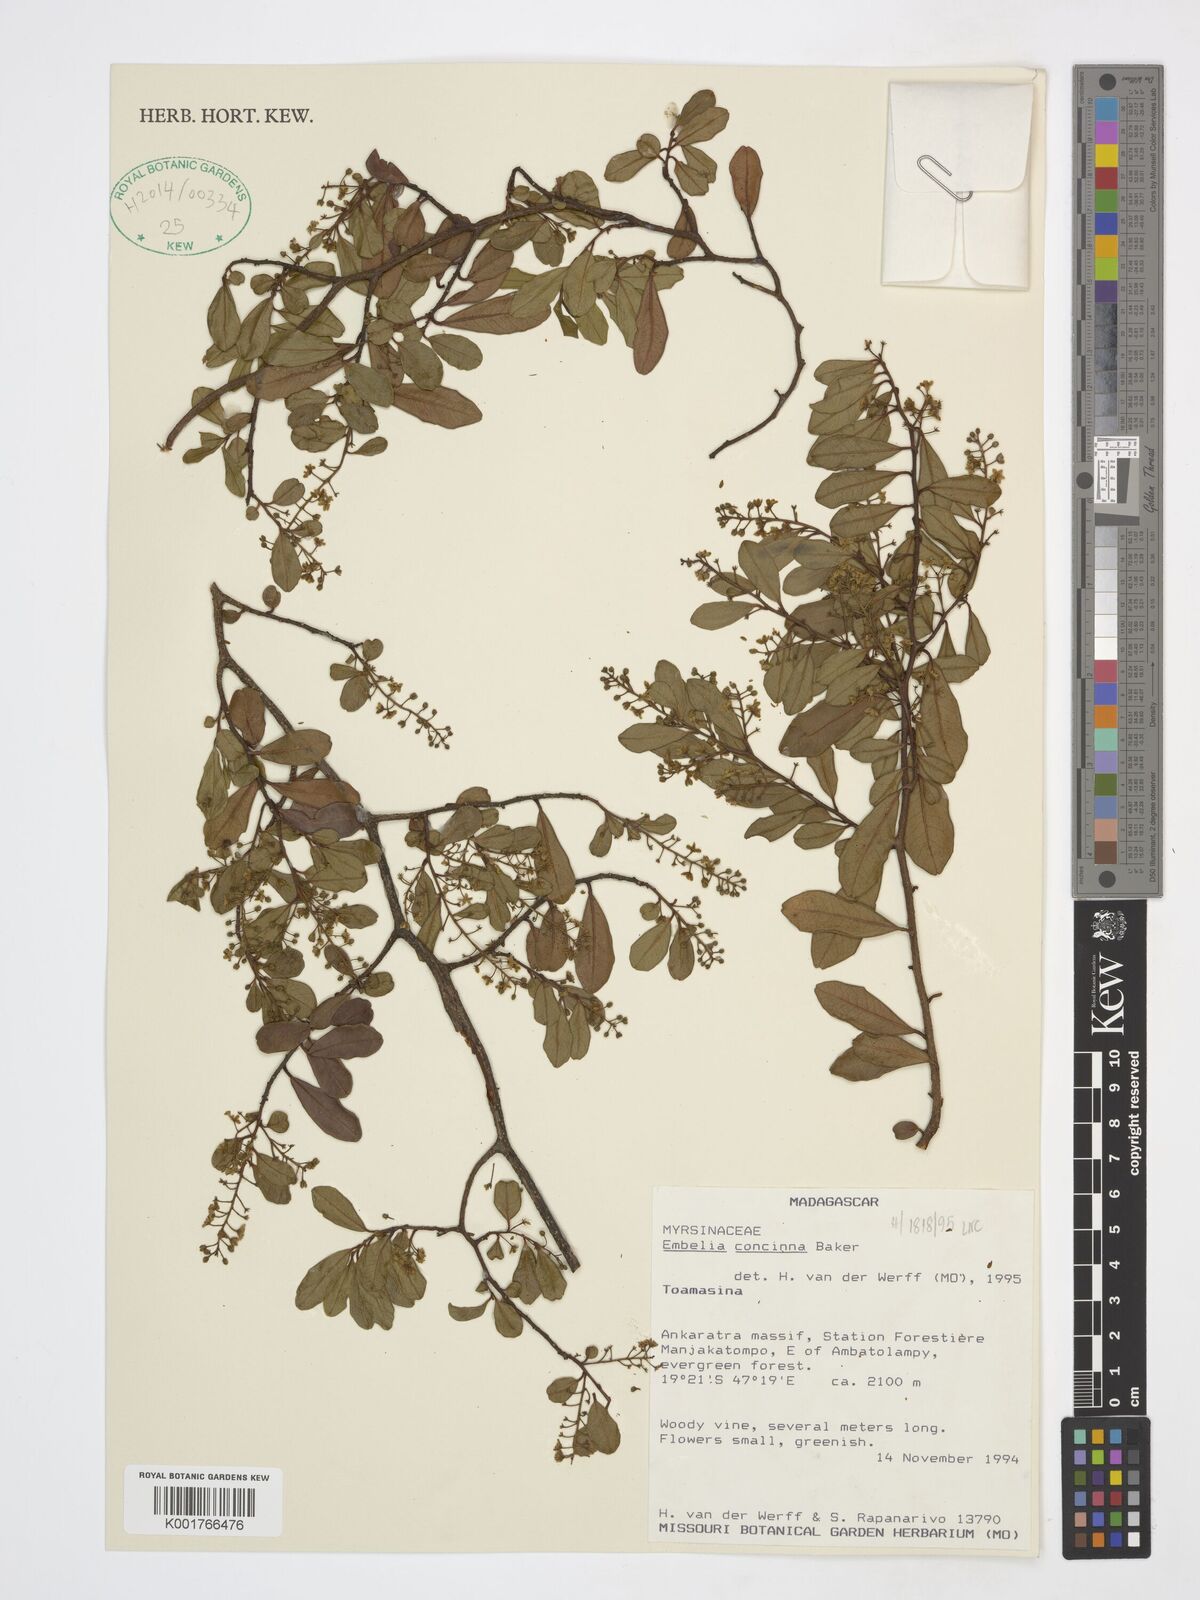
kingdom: Plantae
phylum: Tracheophyta
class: Magnoliopsida
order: Ericales
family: Primulaceae
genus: Embelia
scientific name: Embelia concinna
